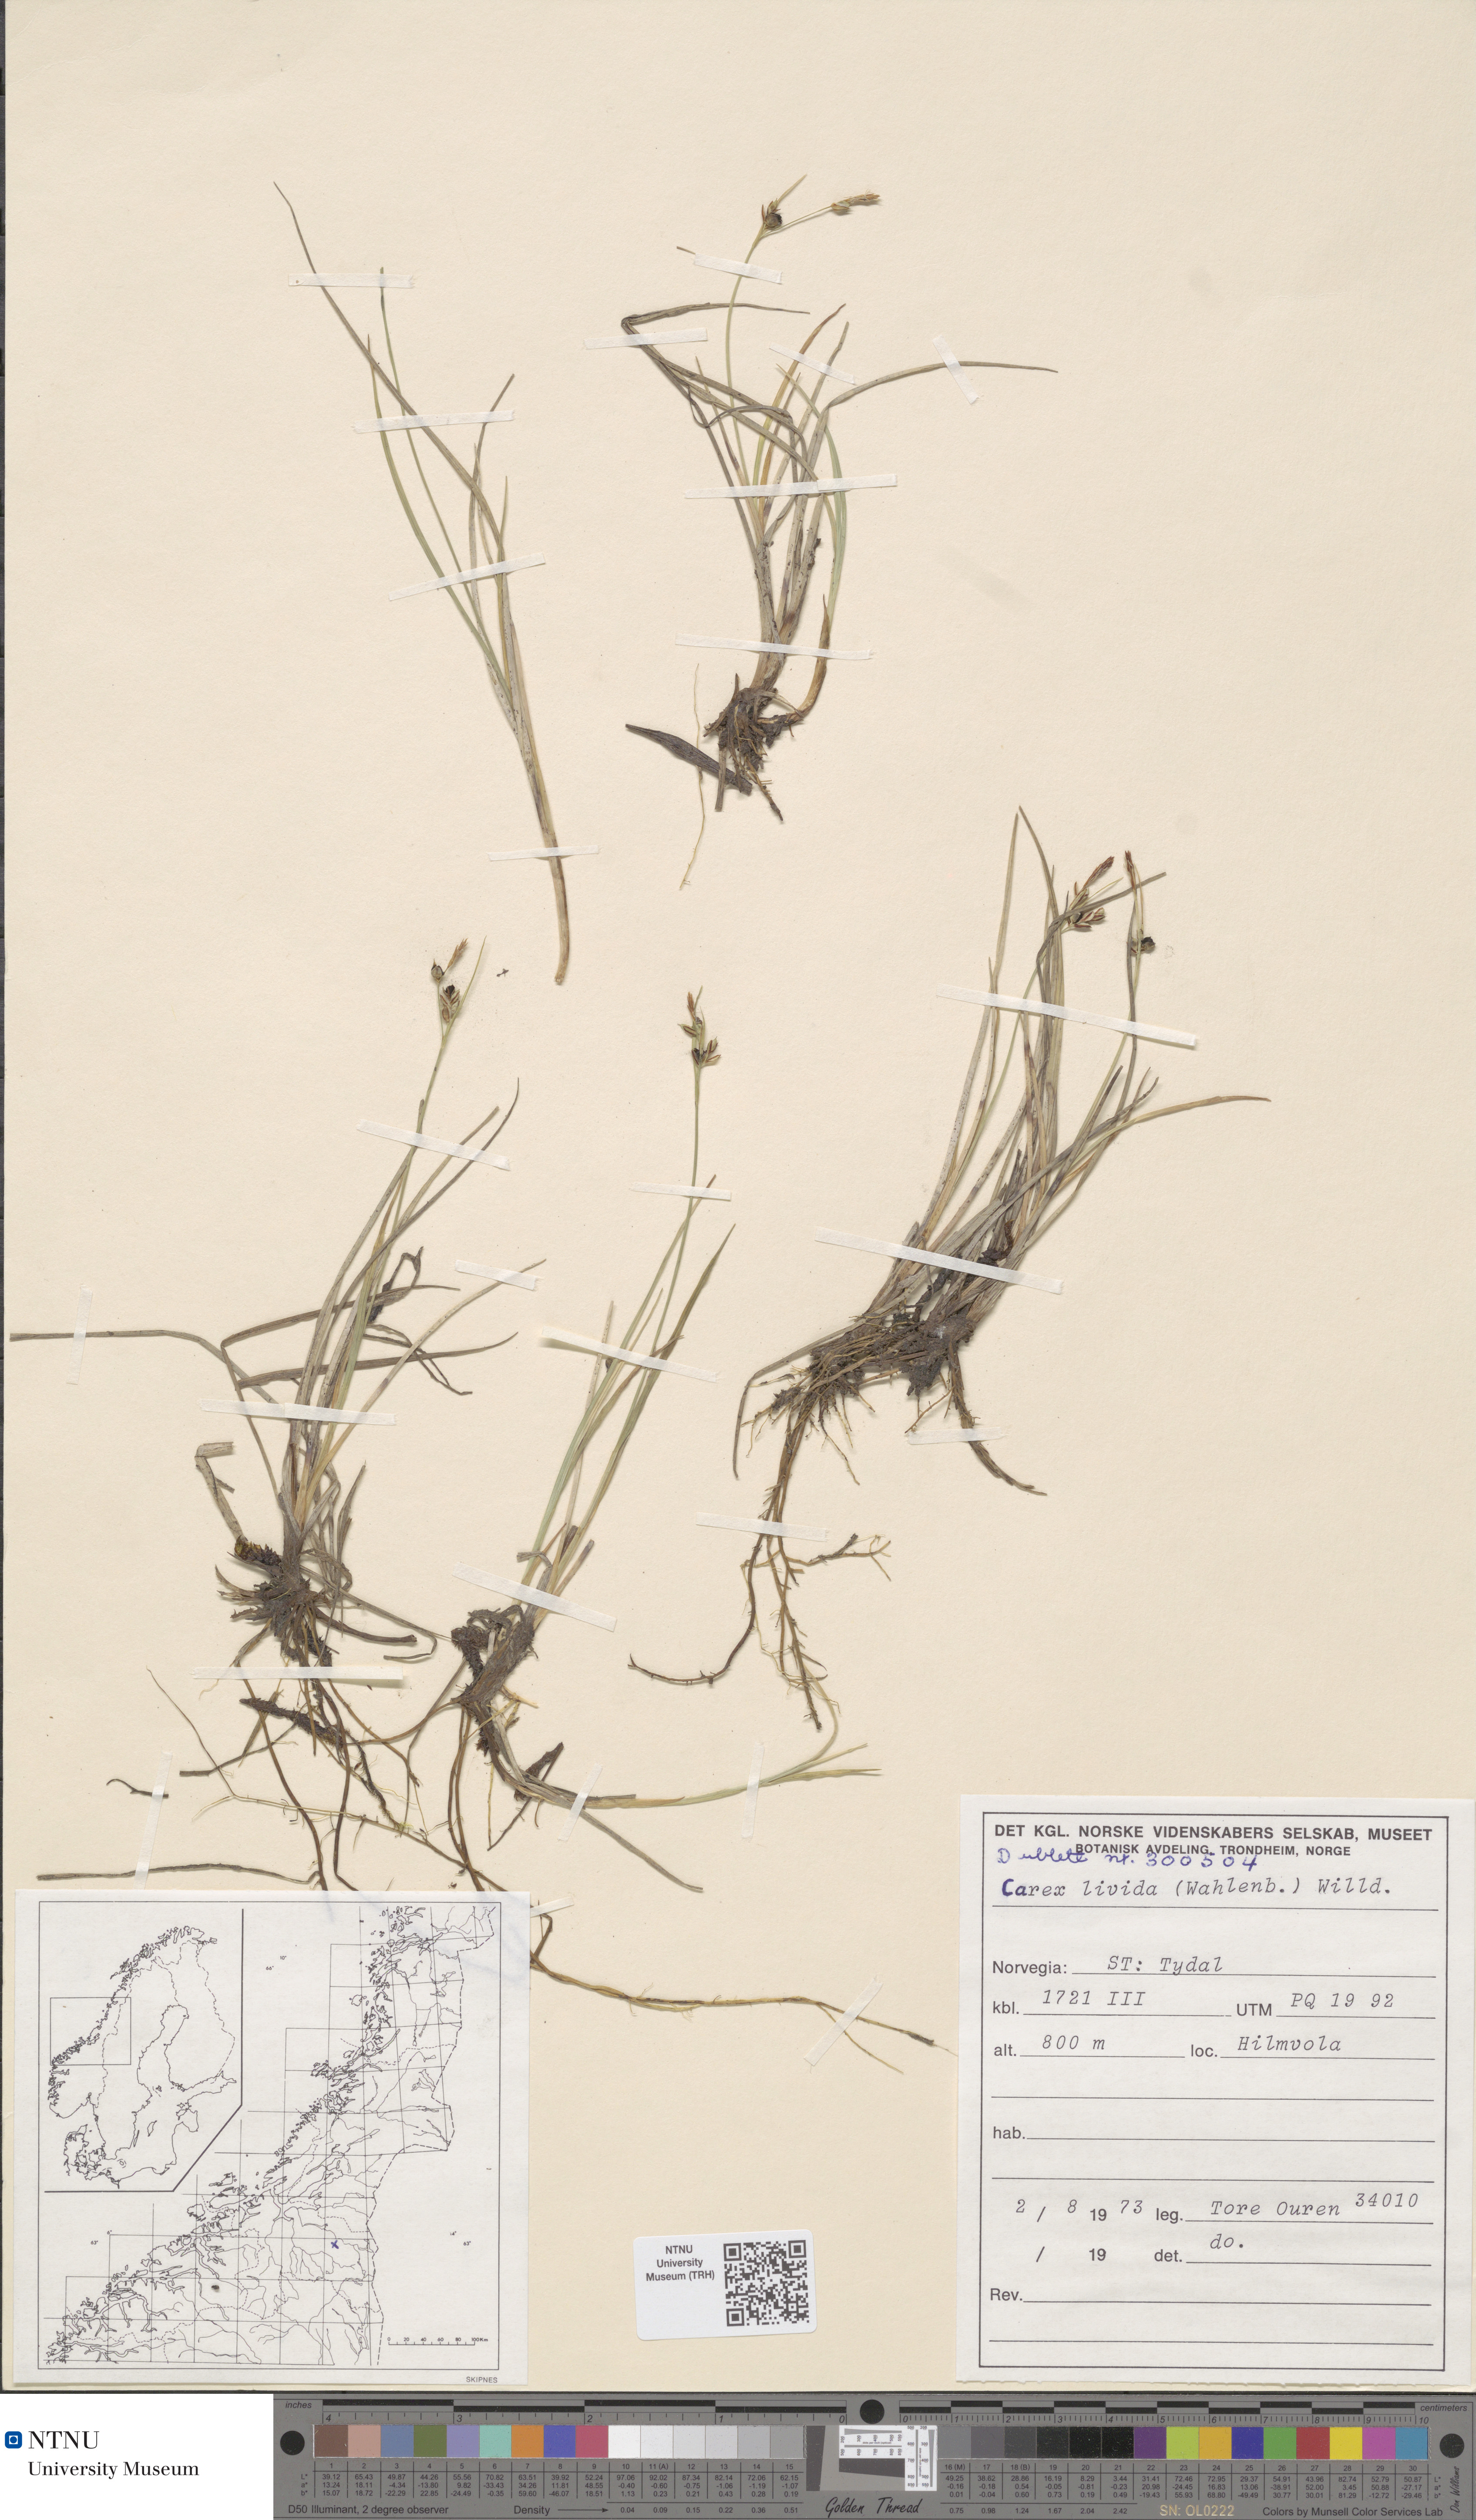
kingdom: Plantae
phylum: Tracheophyta
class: Liliopsida
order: Poales
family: Cyperaceae
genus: Carex
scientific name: Carex livida
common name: Livid sedge
